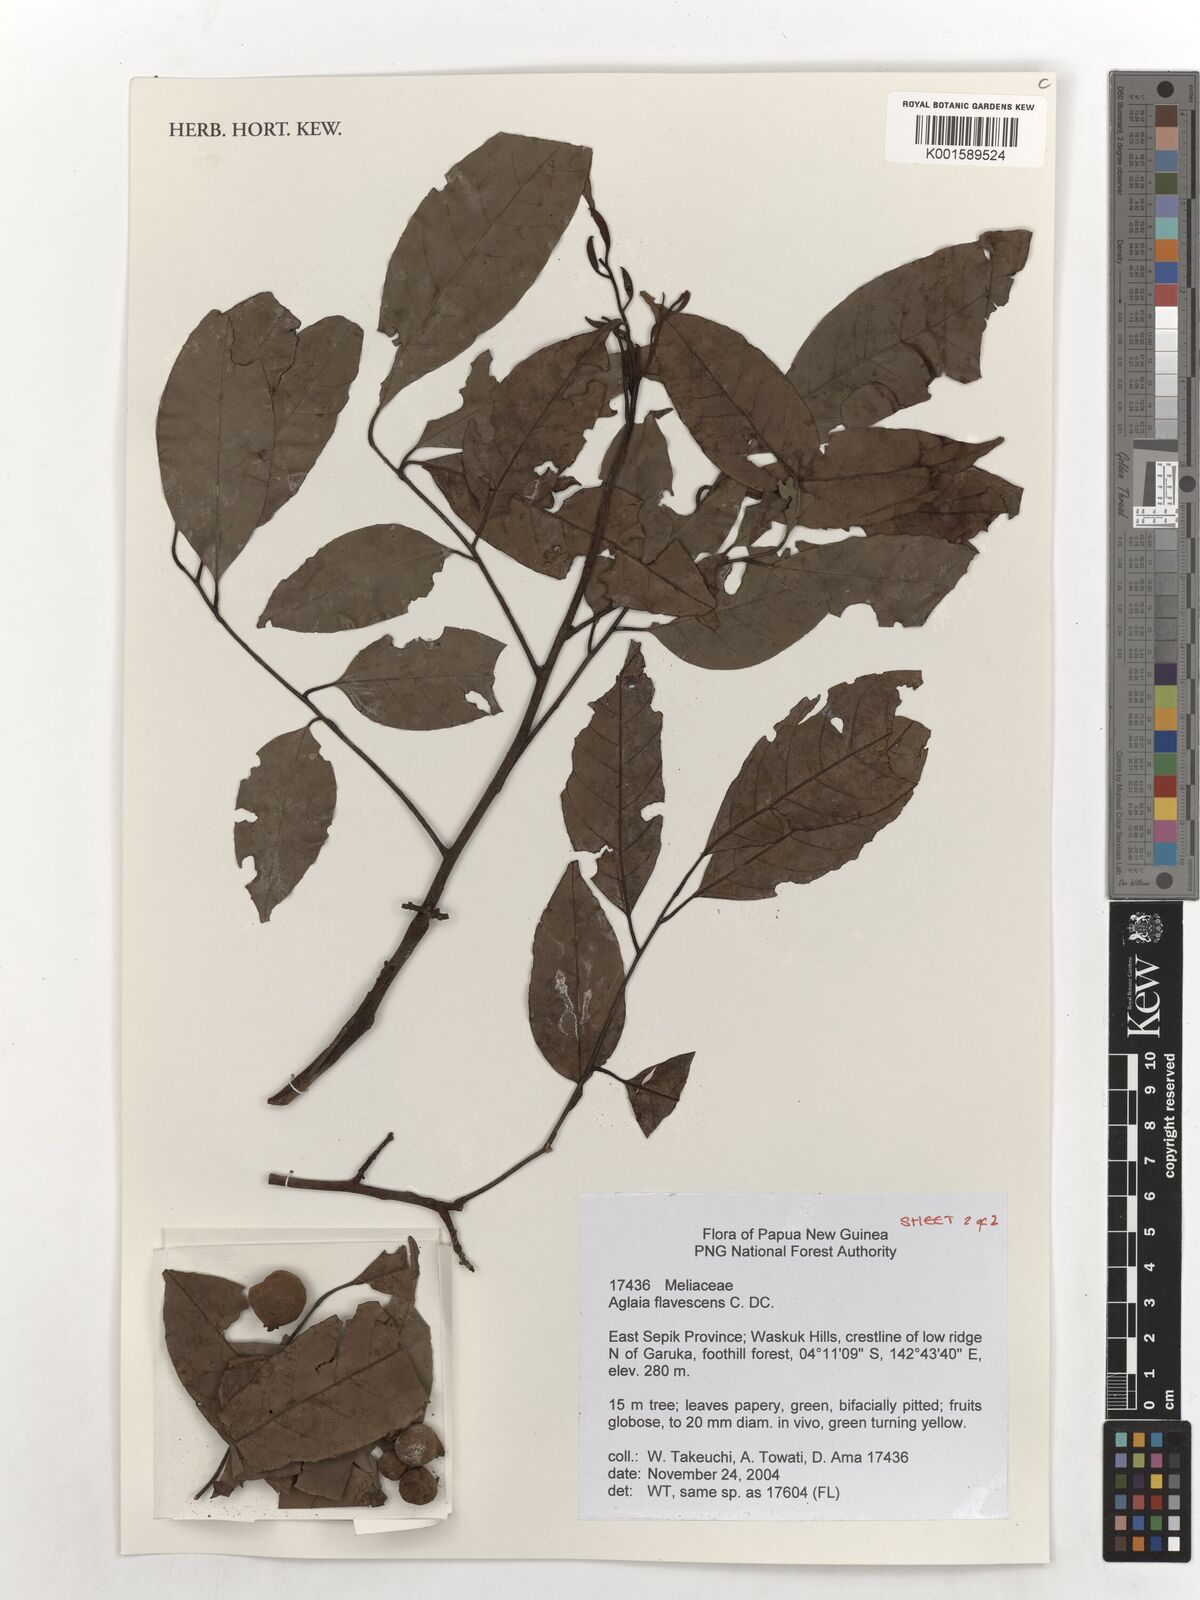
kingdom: Plantae
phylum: Tracheophyta
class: Magnoliopsida
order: Sapindales
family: Meliaceae
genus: Aglaia
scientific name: Aglaia flavescens
